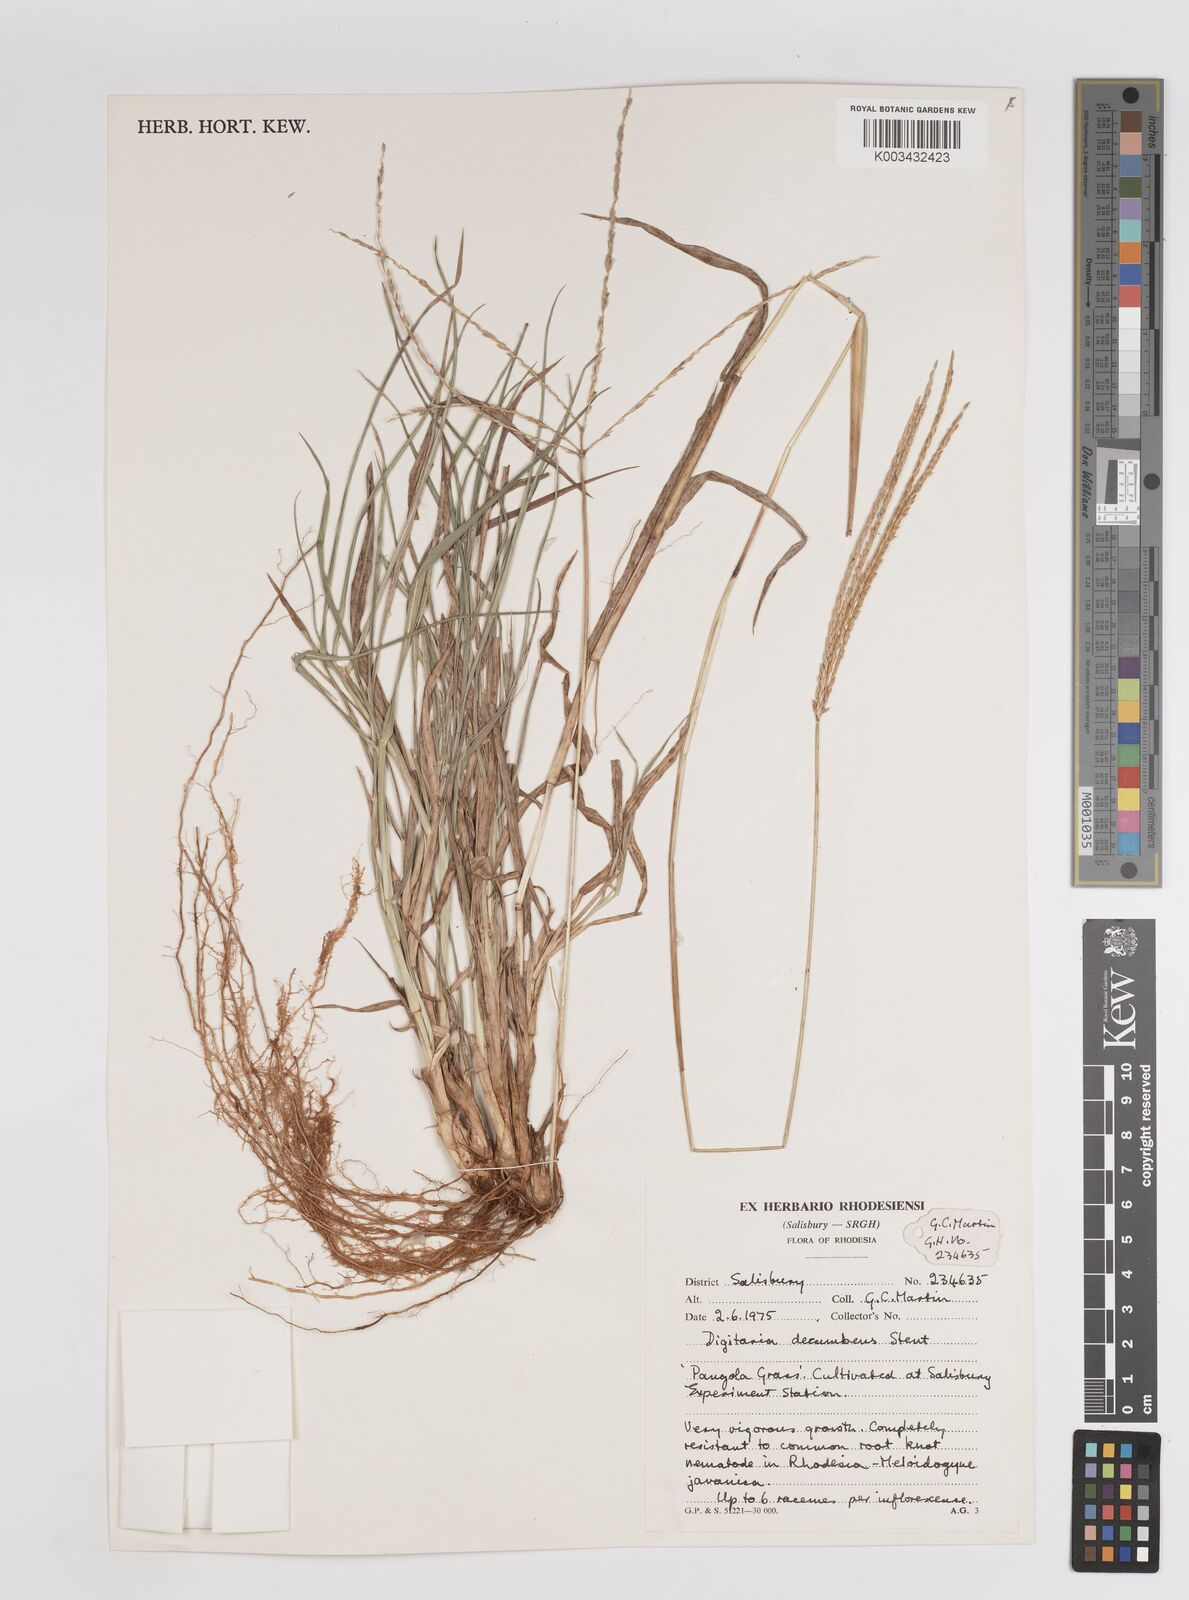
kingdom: Plantae
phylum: Tracheophyta
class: Liliopsida
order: Poales
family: Poaceae
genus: Digitaria
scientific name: Digitaria eriantha
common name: Digitgrass
